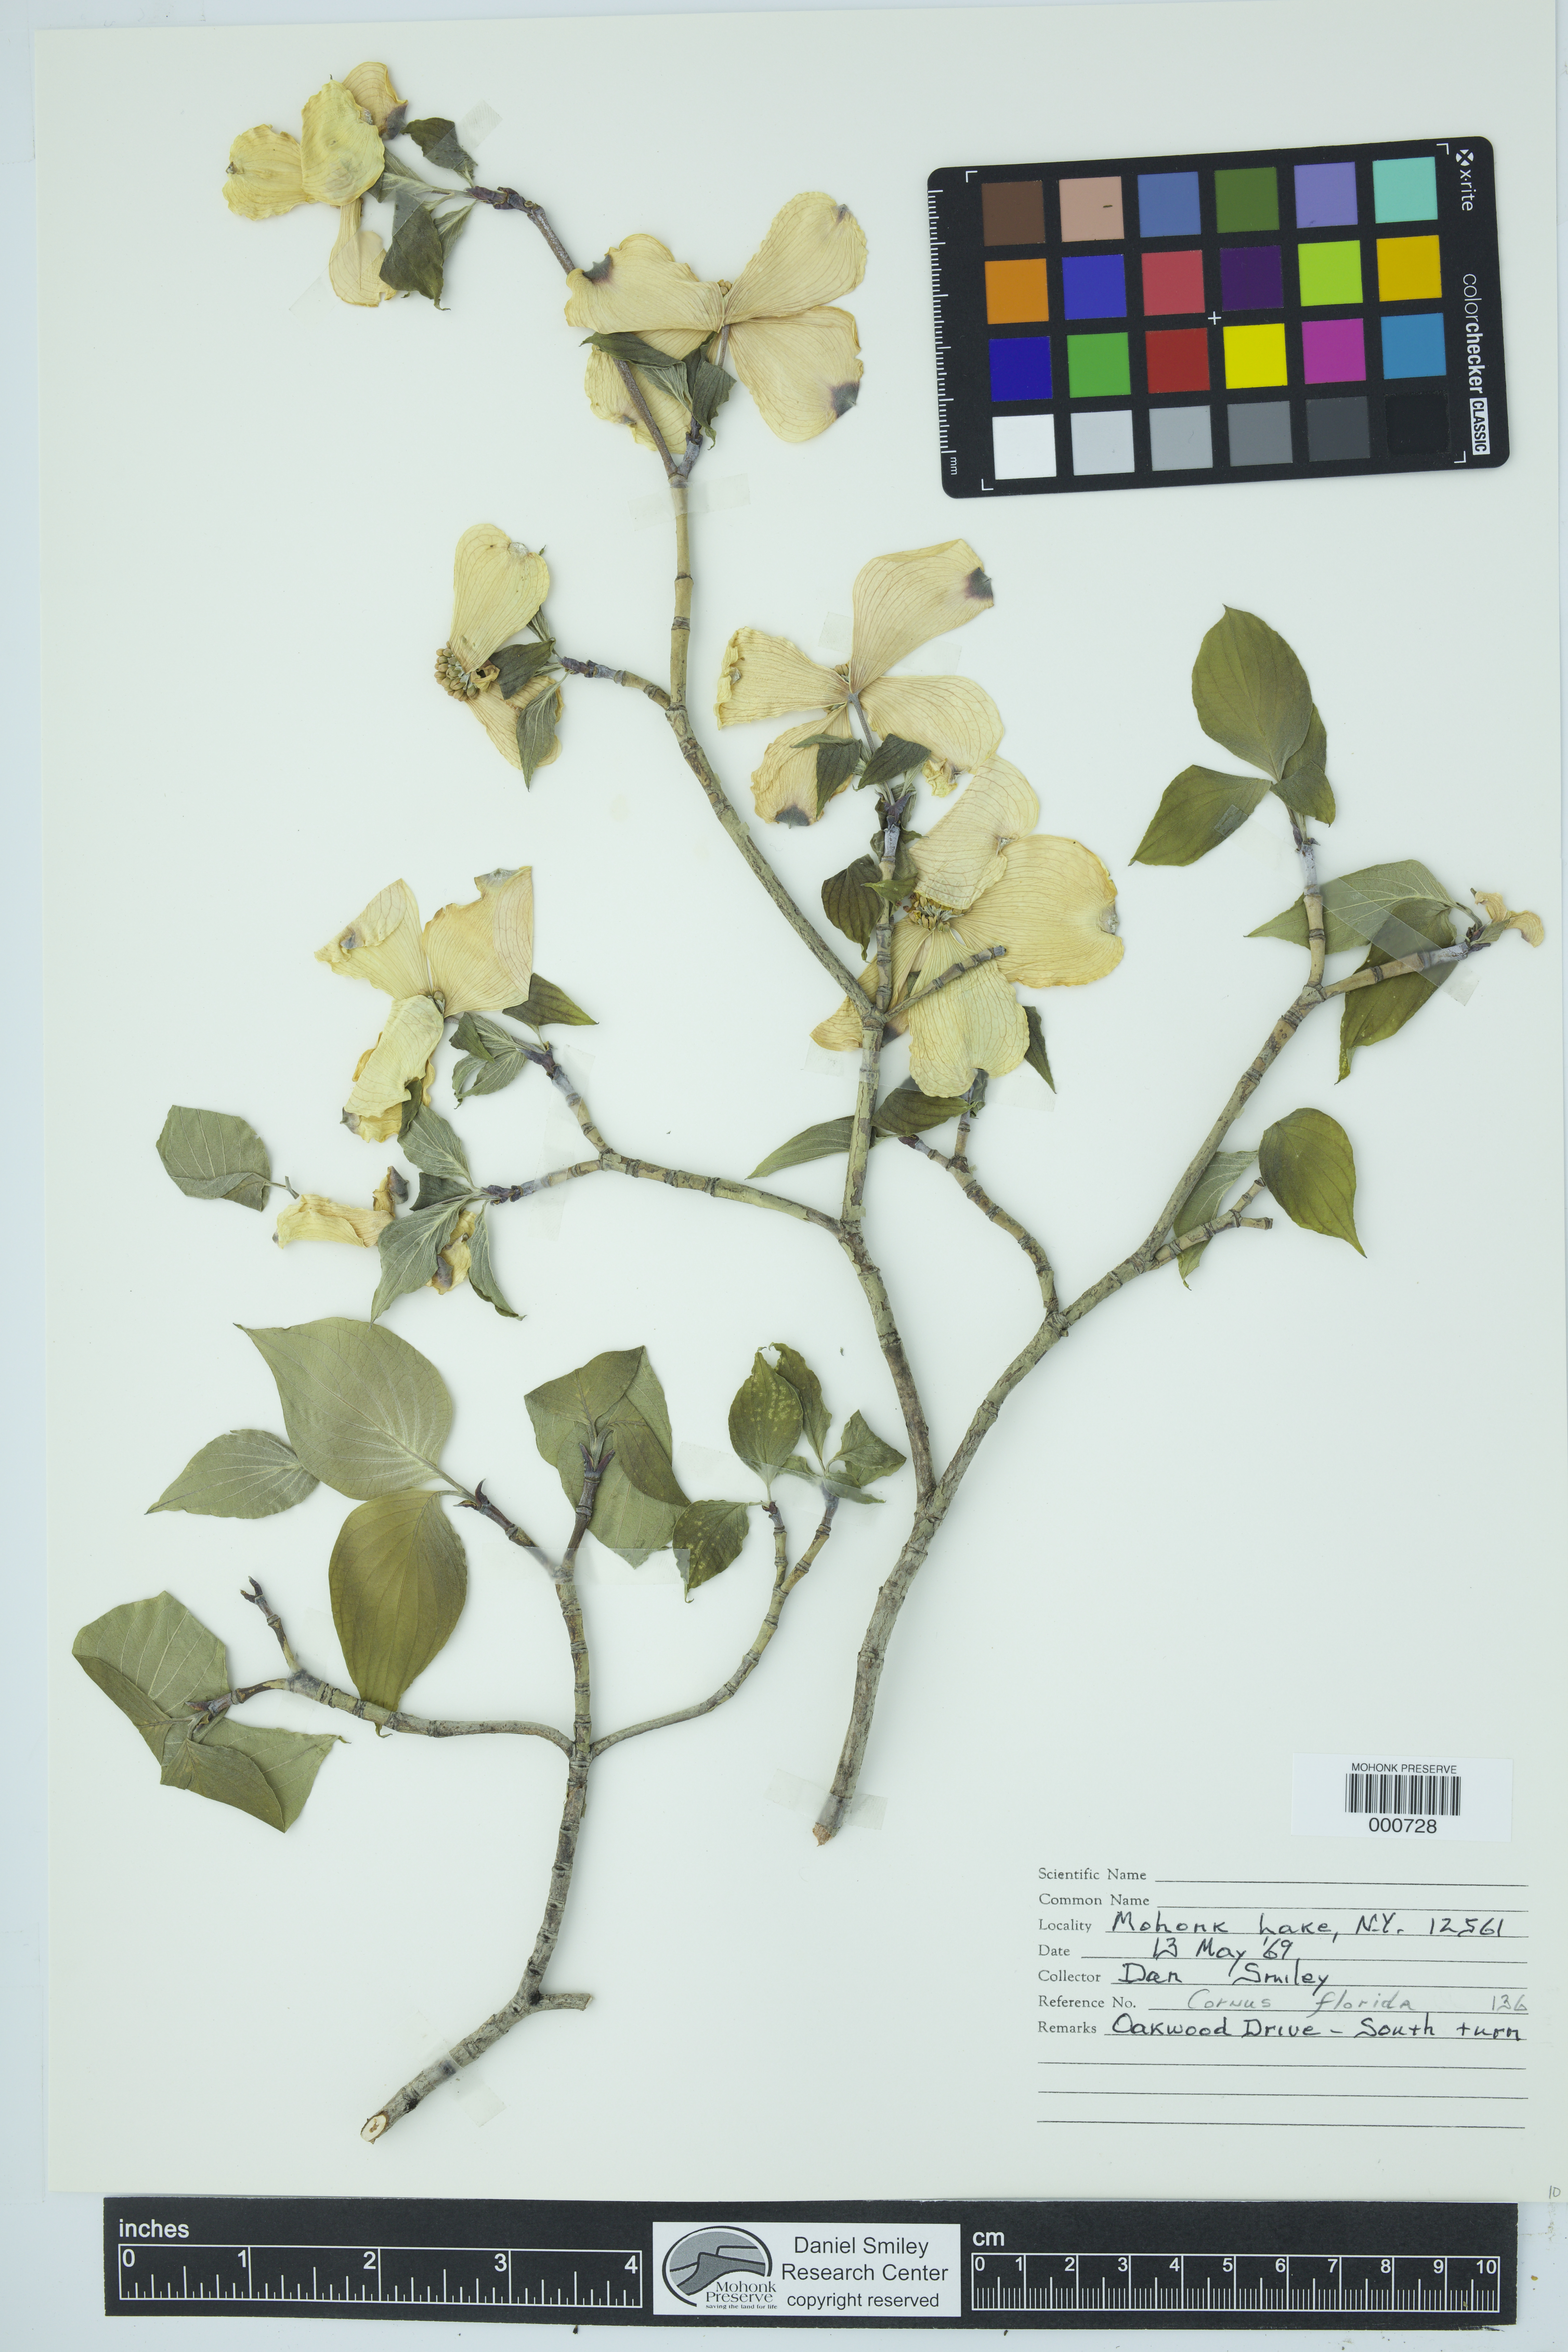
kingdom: Plantae
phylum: Tracheophyta
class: Magnoliopsida
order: Cornales
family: Cornaceae
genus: Cornus
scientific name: Cornus florida
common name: Flowering dogwood
